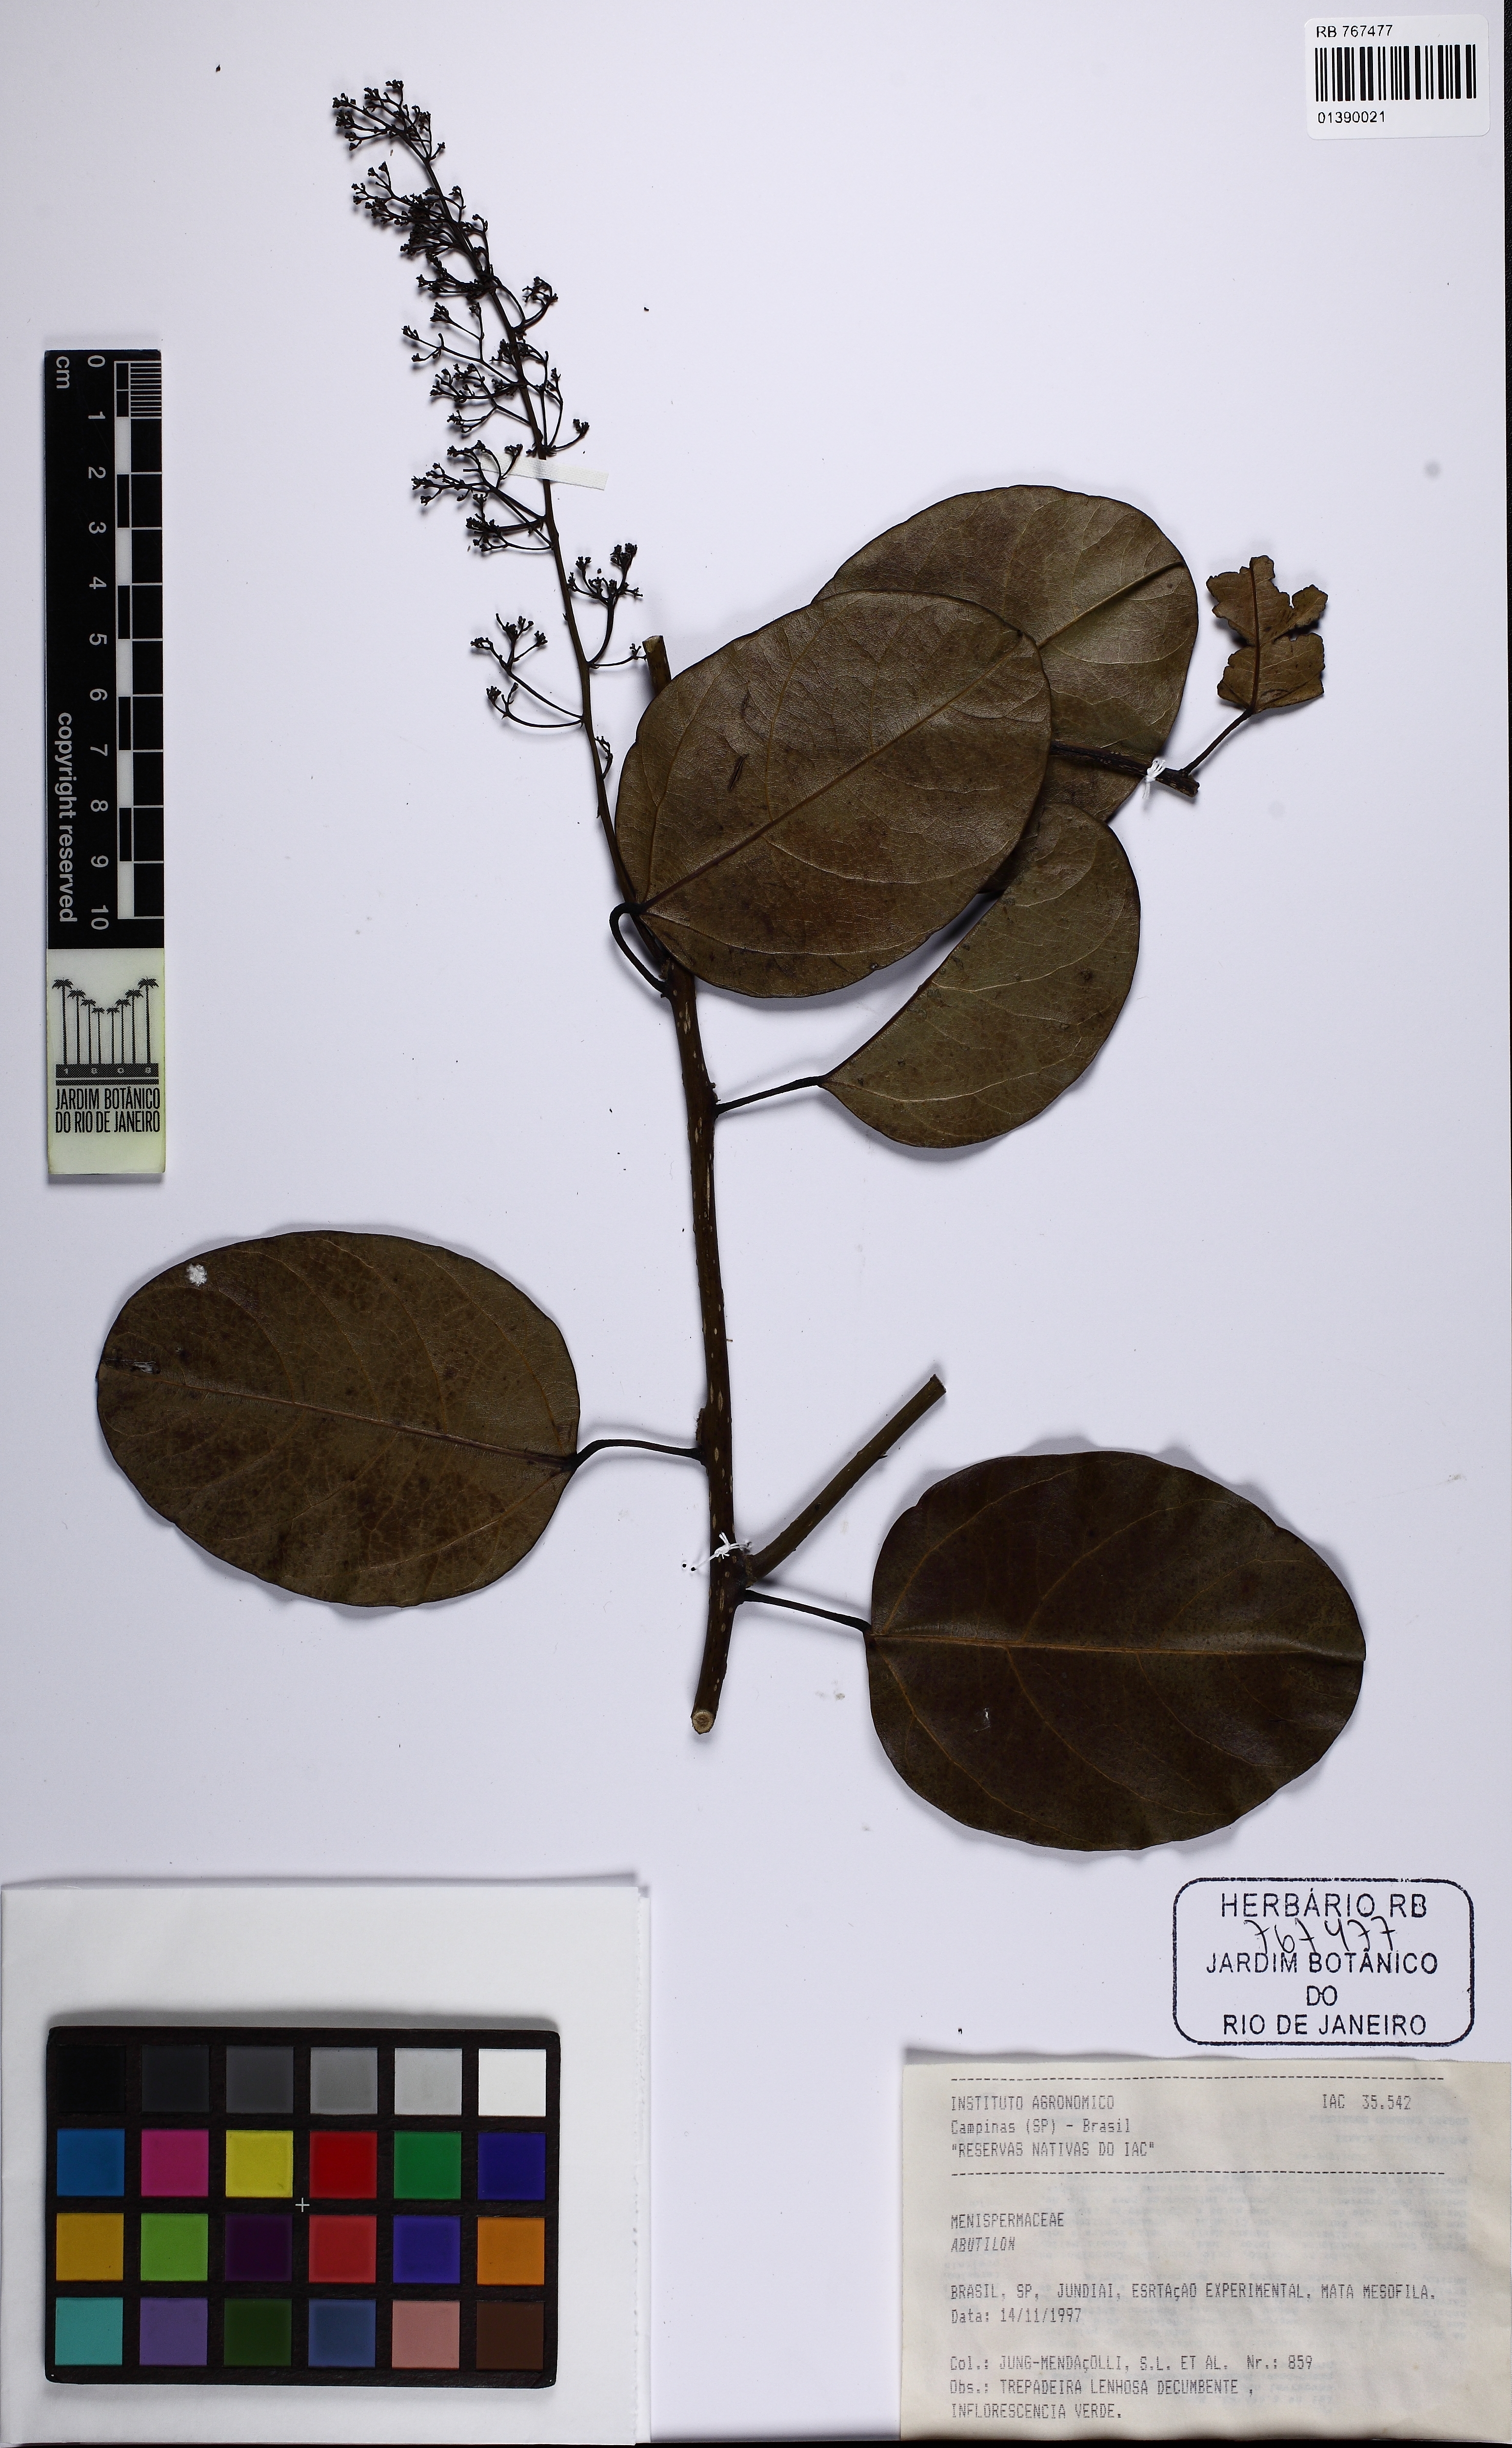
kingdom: Plantae
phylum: Tracheophyta
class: Magnoliopsida
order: Ranunculales
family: Menispermaceae
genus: Abuta
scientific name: Abuta selloana
